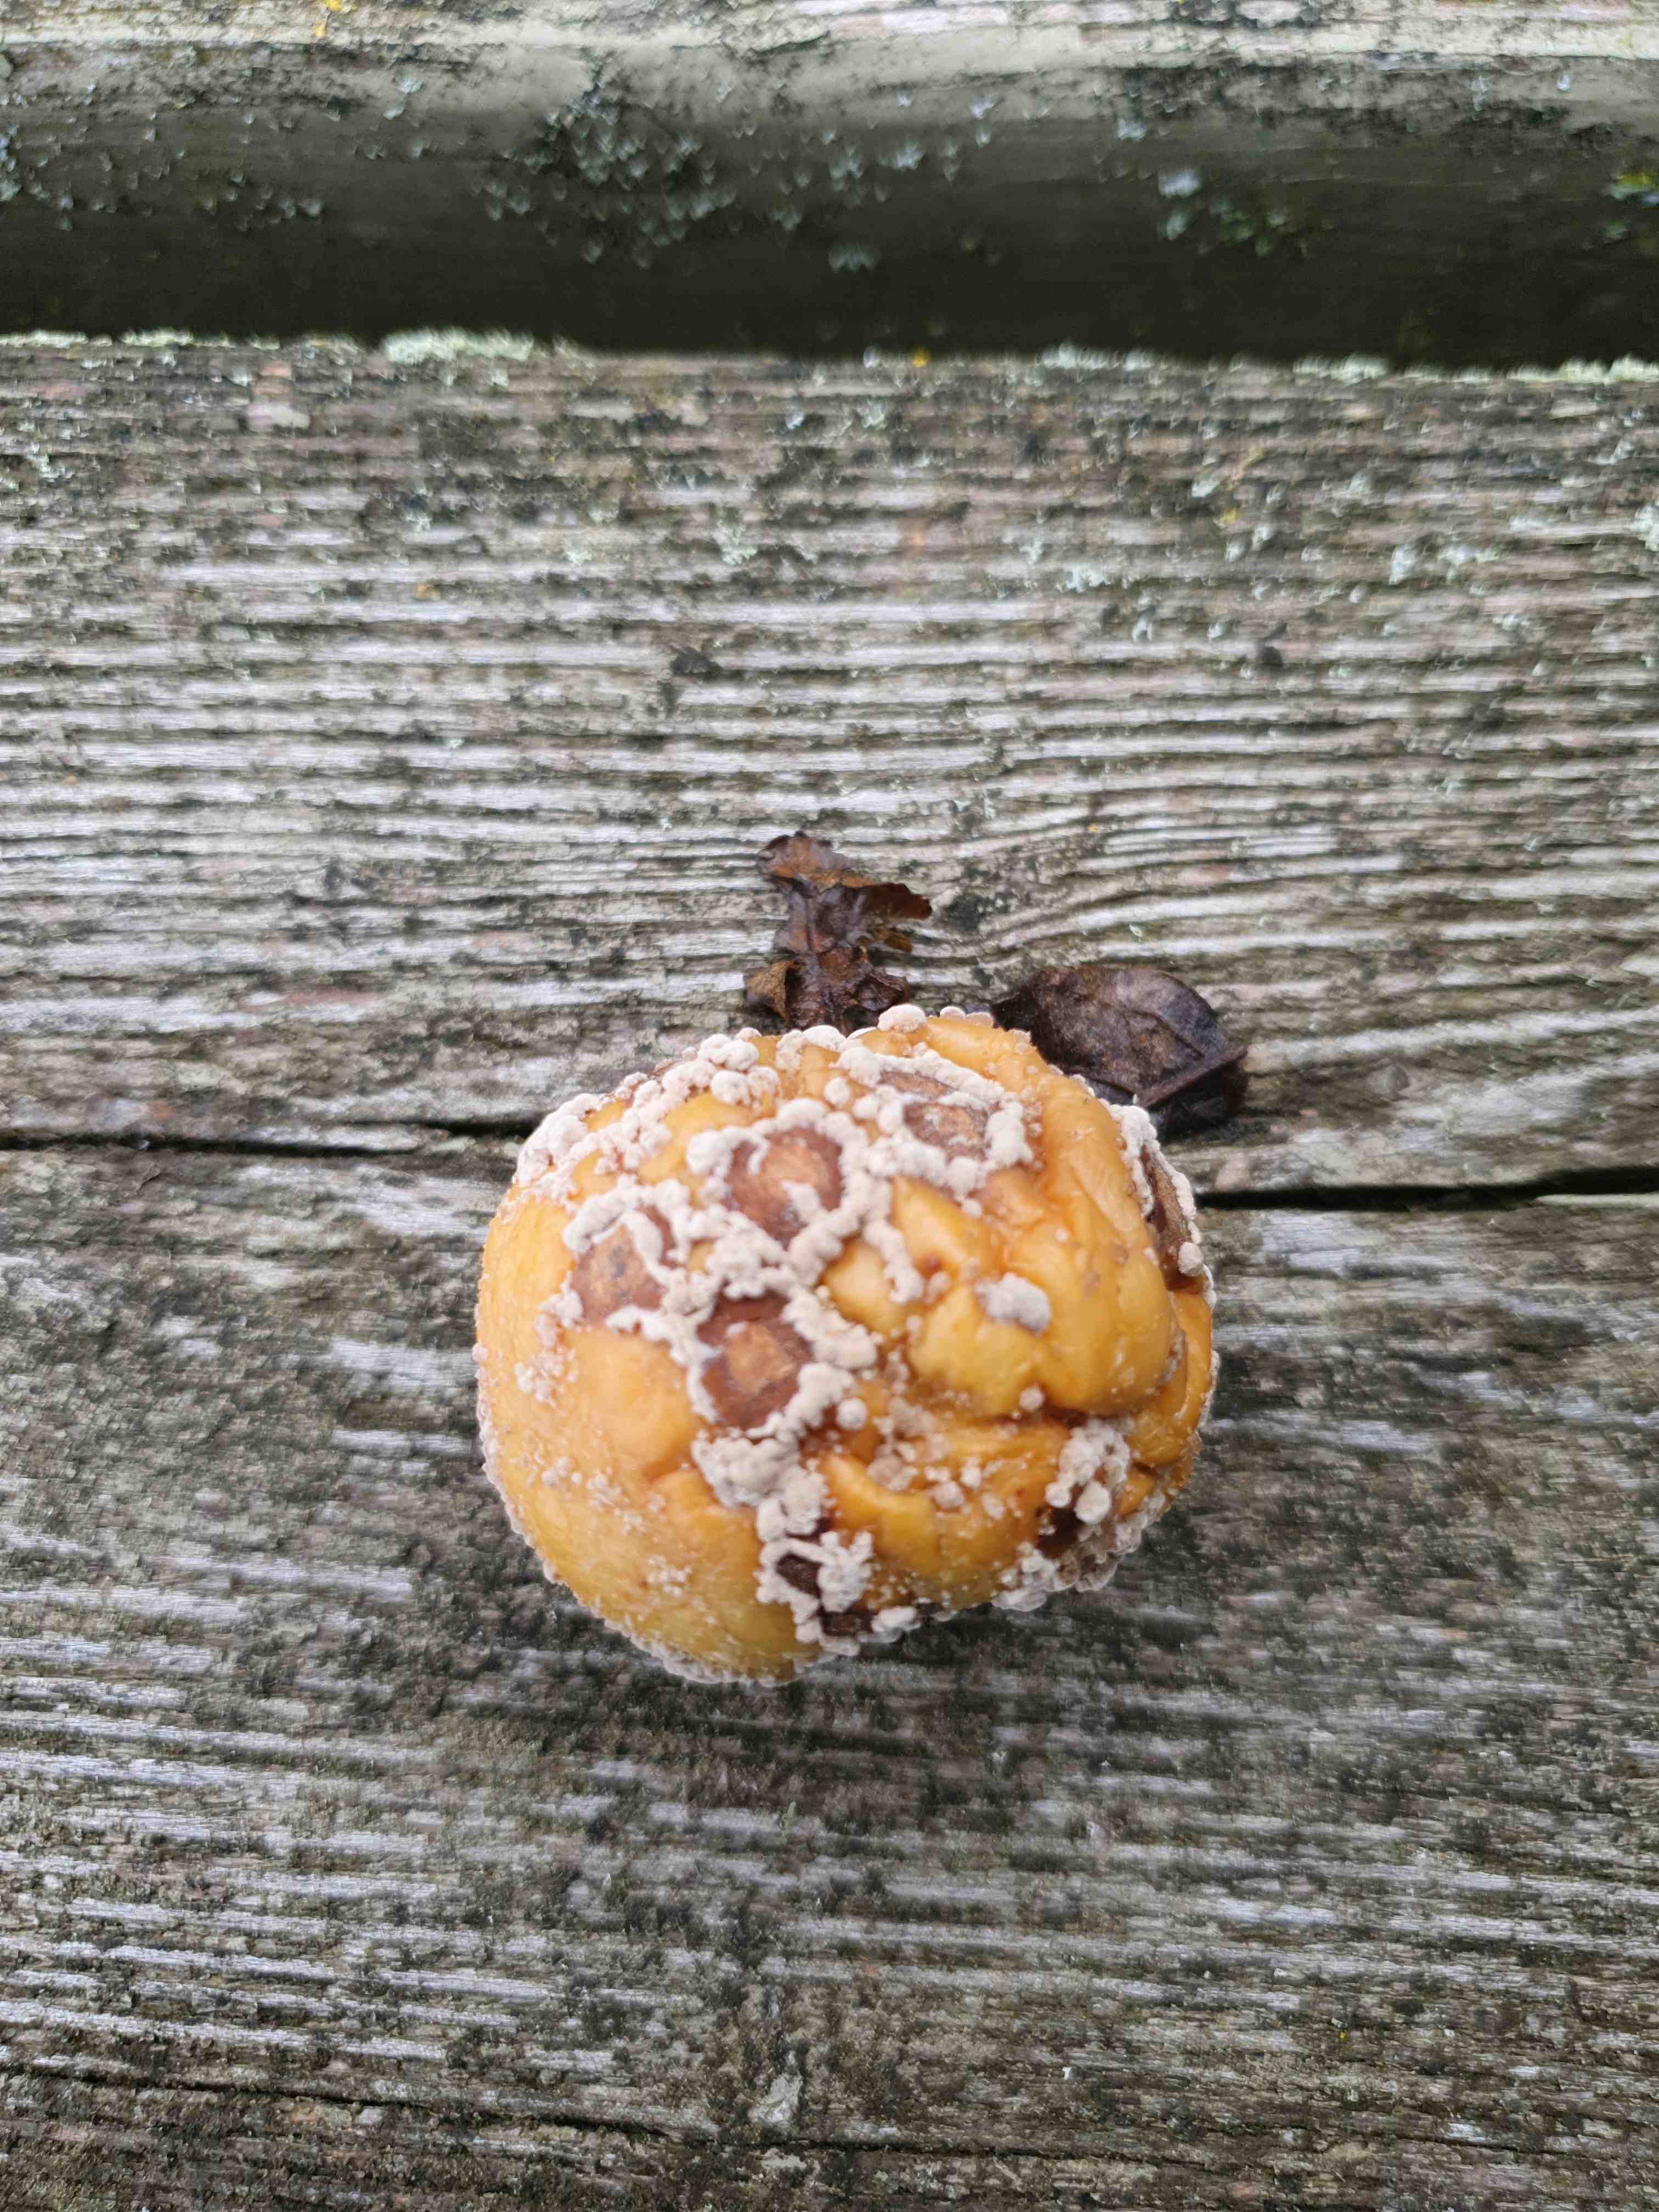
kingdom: Fungi
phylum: Ascomycota
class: Leotiomycetes
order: Helotiales
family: Sclerotiniaceae
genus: Monilinia
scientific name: Monilinia fructigena
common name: æble-knoldskive
